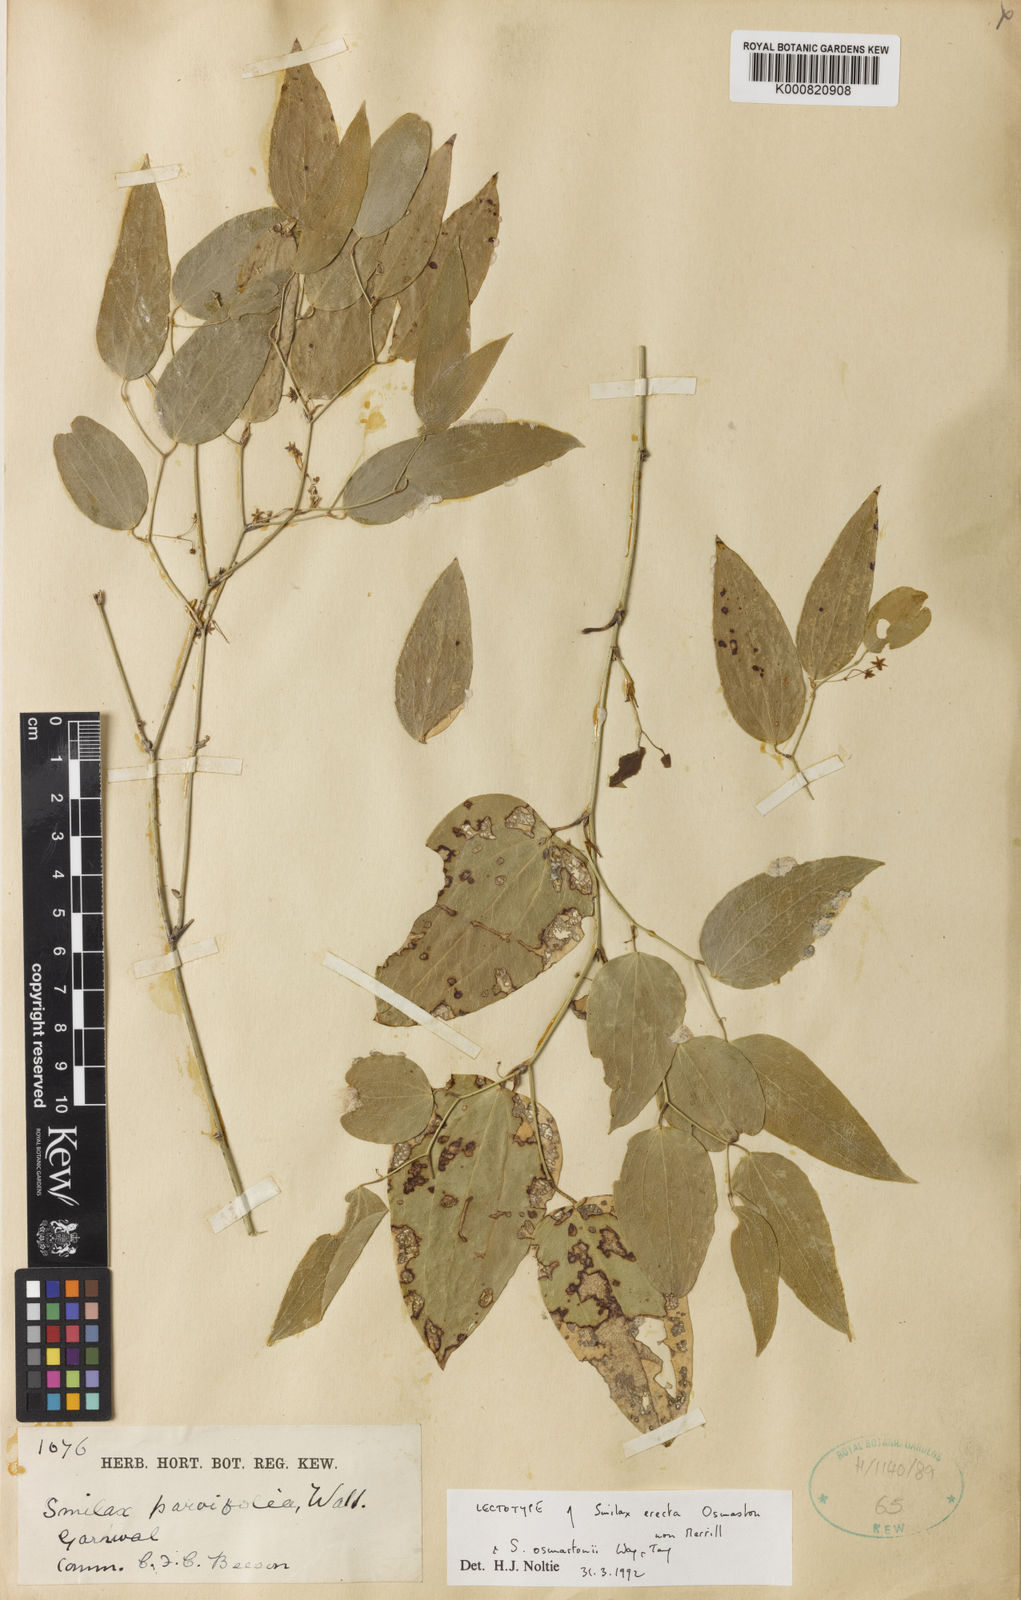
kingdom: Plantae
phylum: Tracheophyta
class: Liliopsida
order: Liliales
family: Smilacaceae
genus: Smilax
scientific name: Smilax elegans
